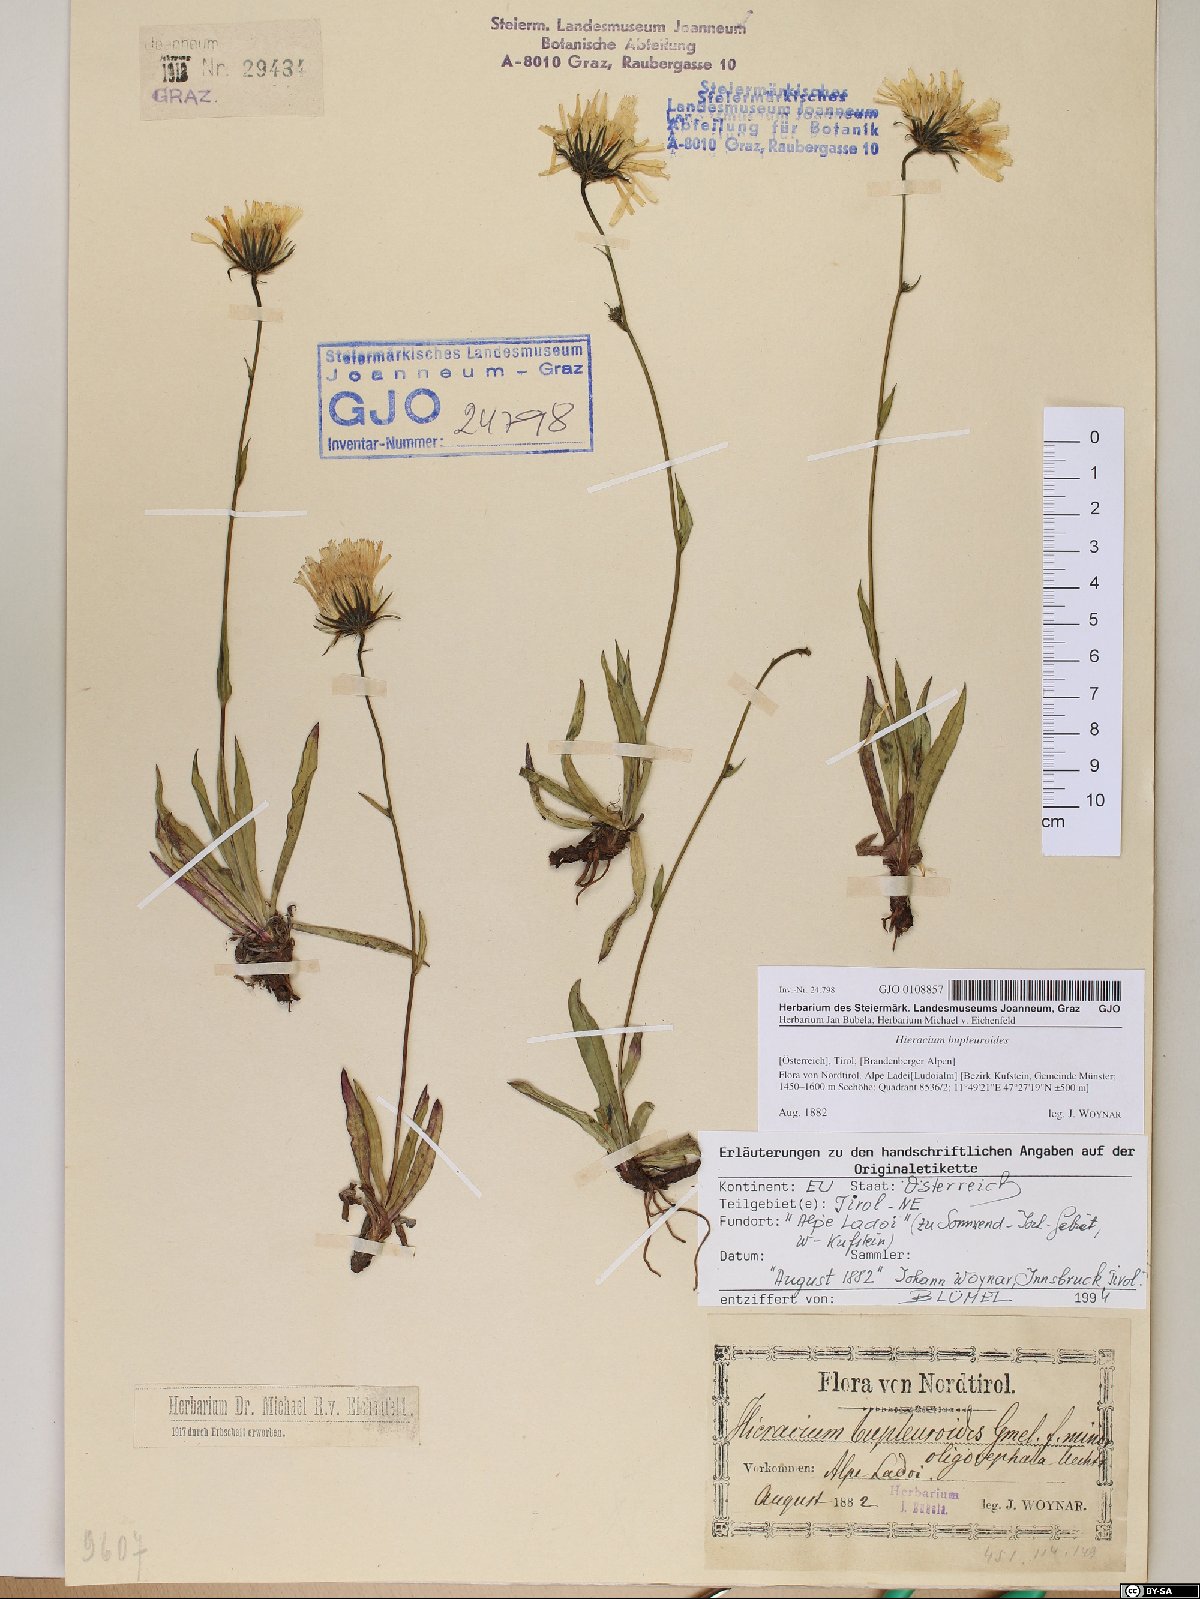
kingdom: Plantae
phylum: Tracheophyta
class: Magnoliopsida
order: Asterales
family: Asteraceae
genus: Hieracium
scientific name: Hieracium bupleuroides
